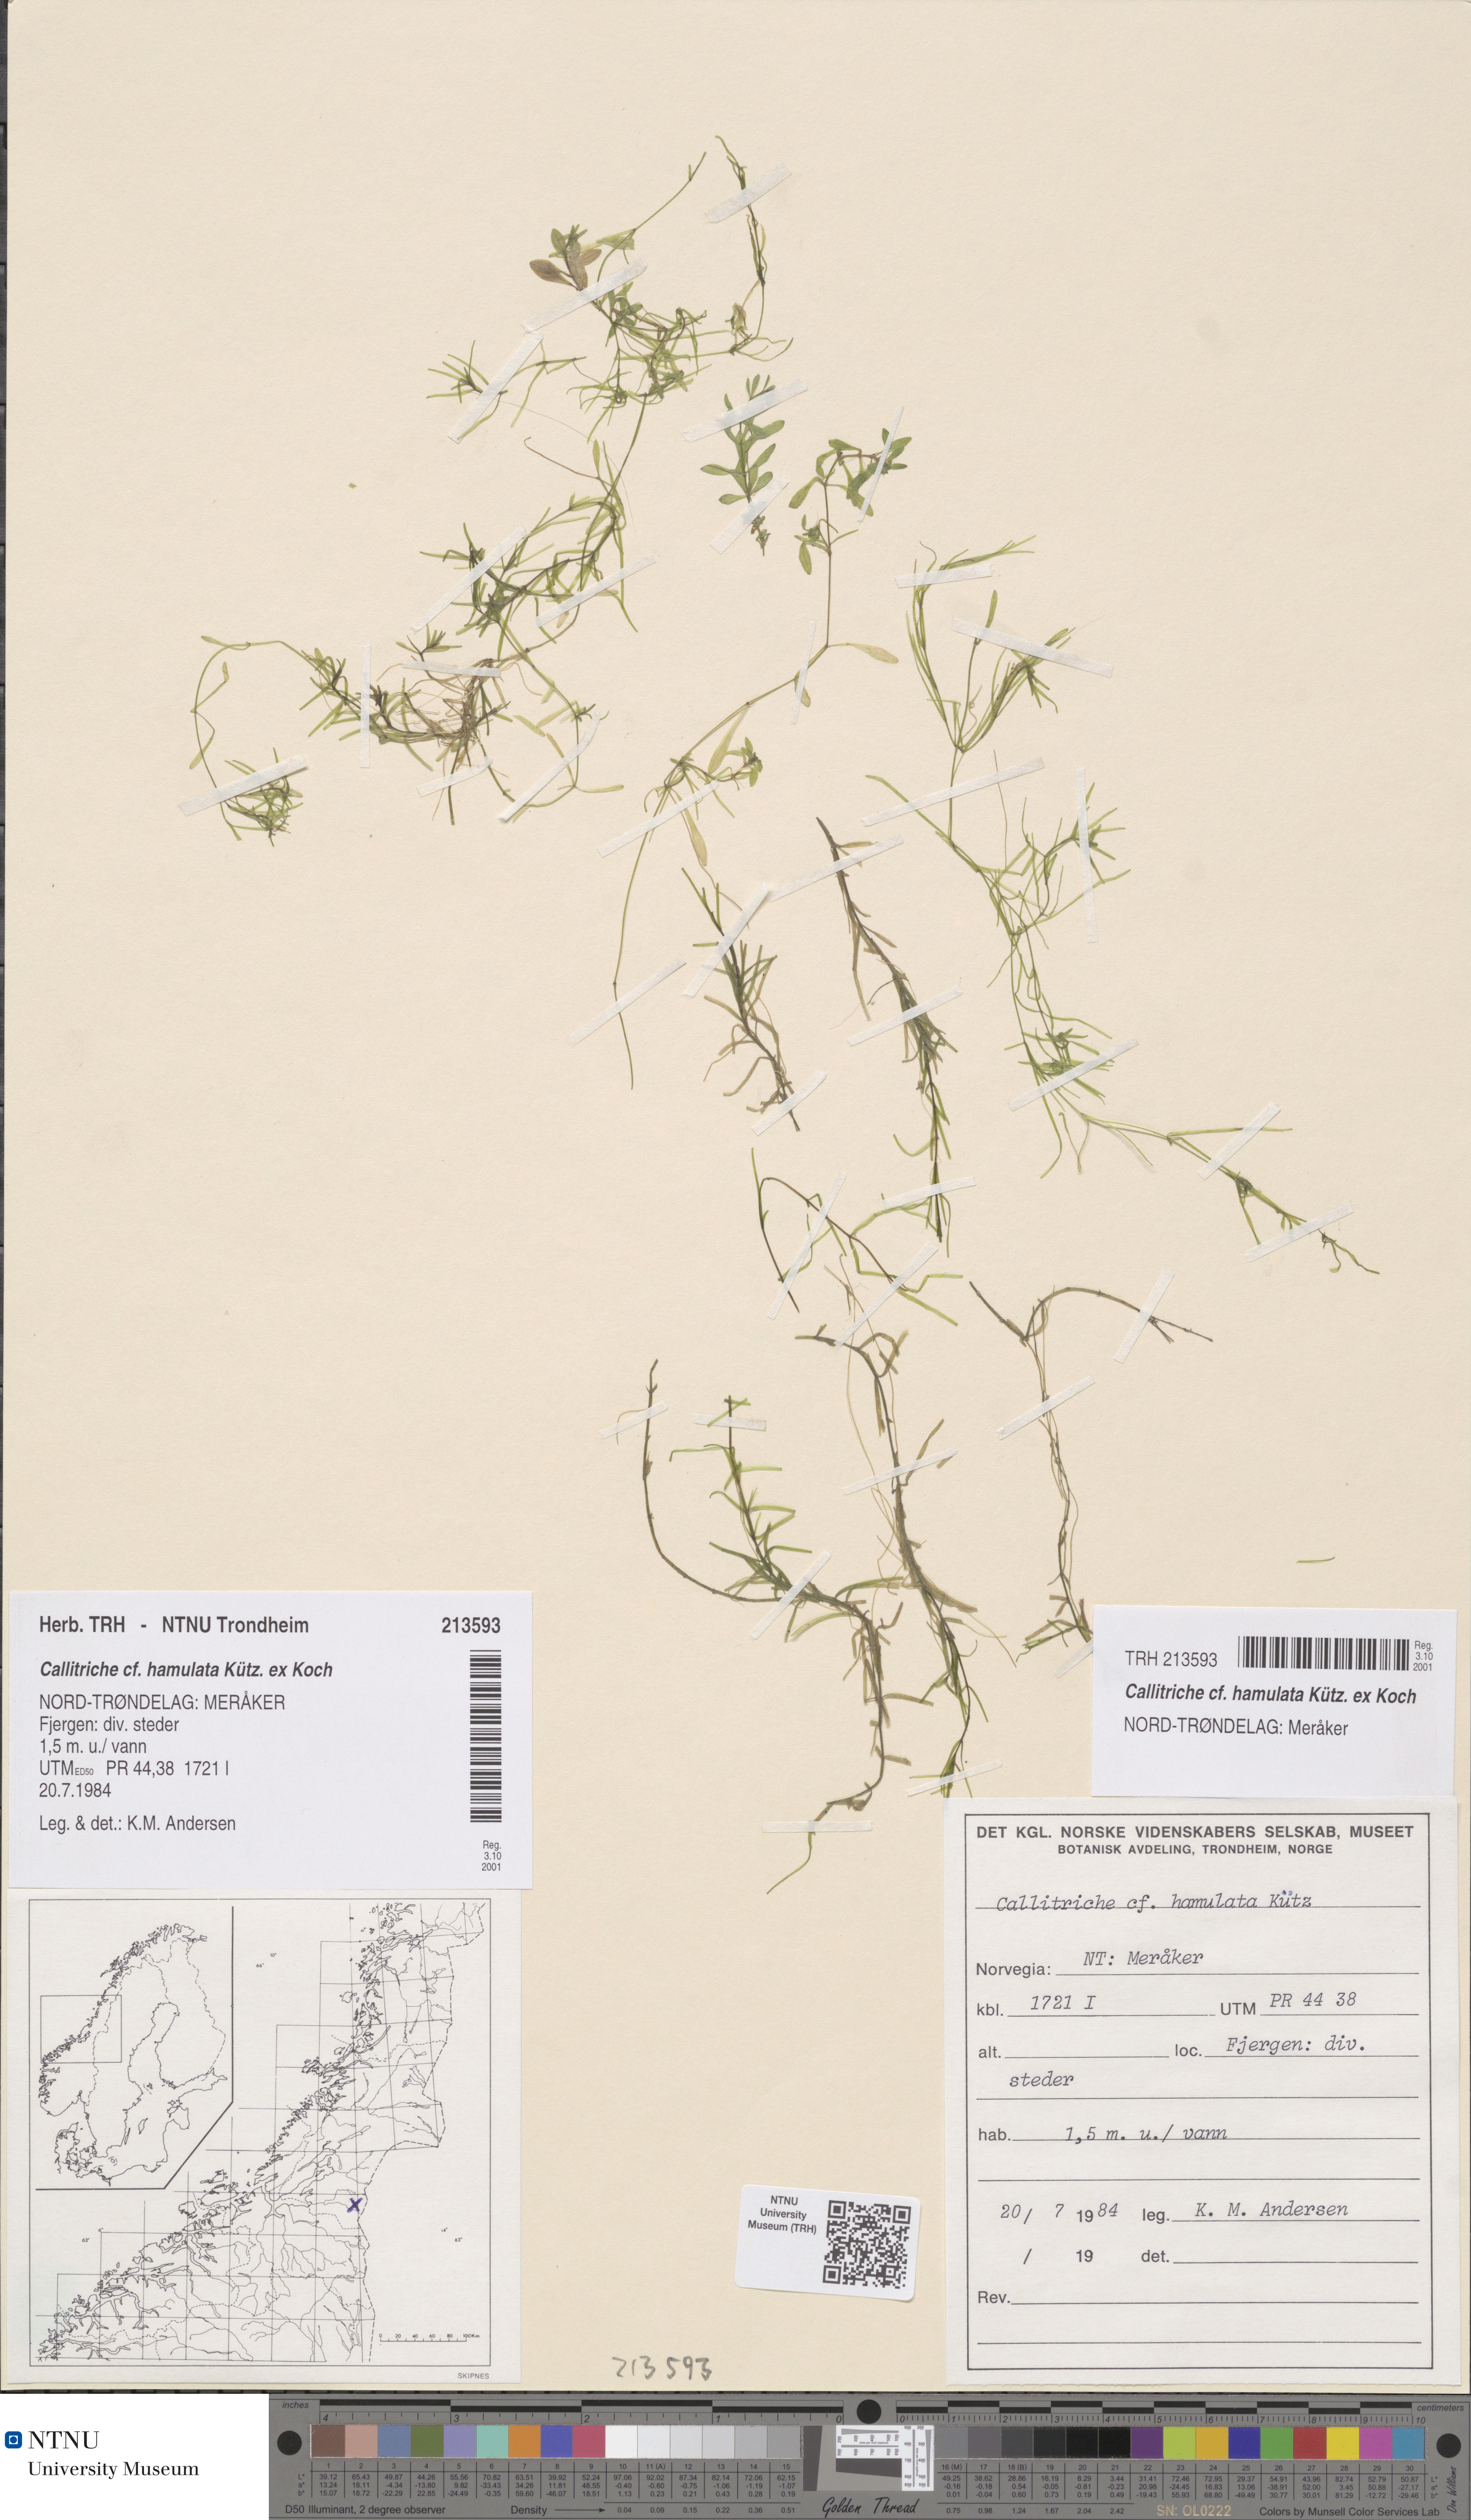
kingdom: Plantae
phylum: Tracheophyta
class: Magnoliopsida
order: Lamiales
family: Plantaginaceae
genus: Callitriche
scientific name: Callitriche hamulata
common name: Intermediate water-starwort
